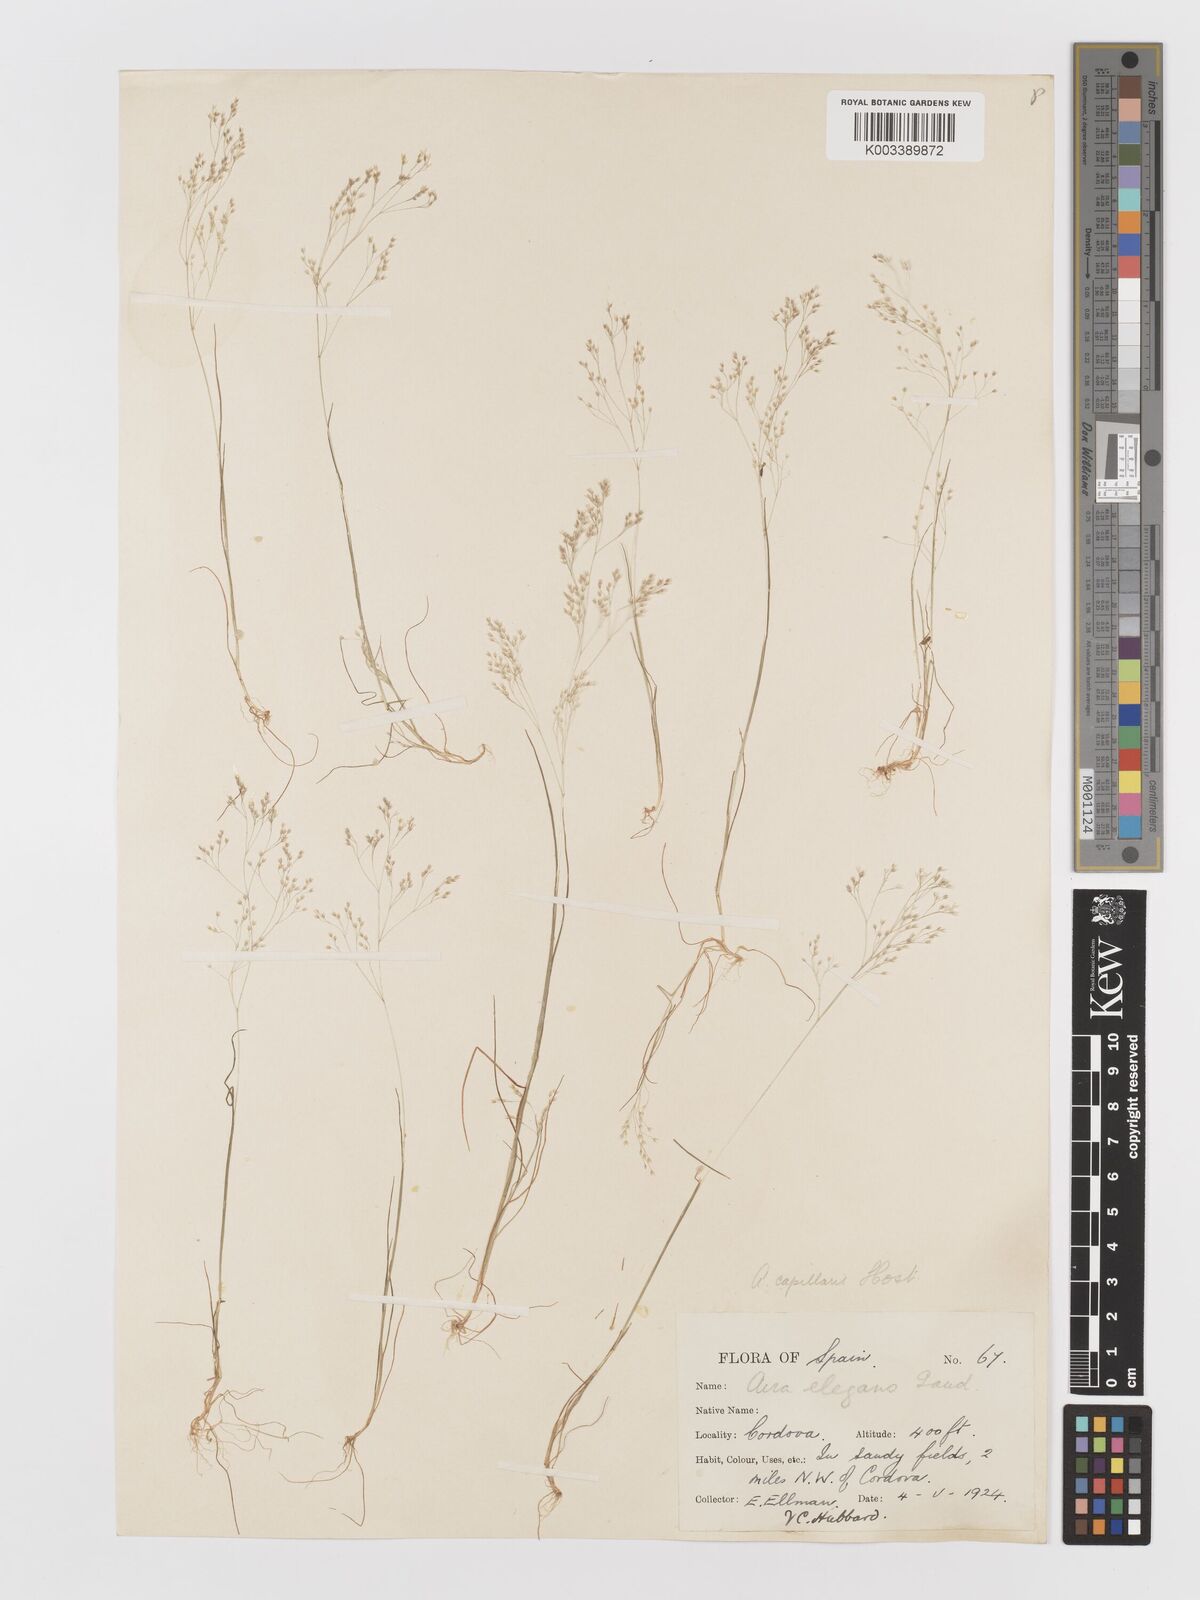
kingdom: Plantae
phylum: Tracheophyta
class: Liliopsida
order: Poales
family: Poaceae
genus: Aira
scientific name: Aira elegans
